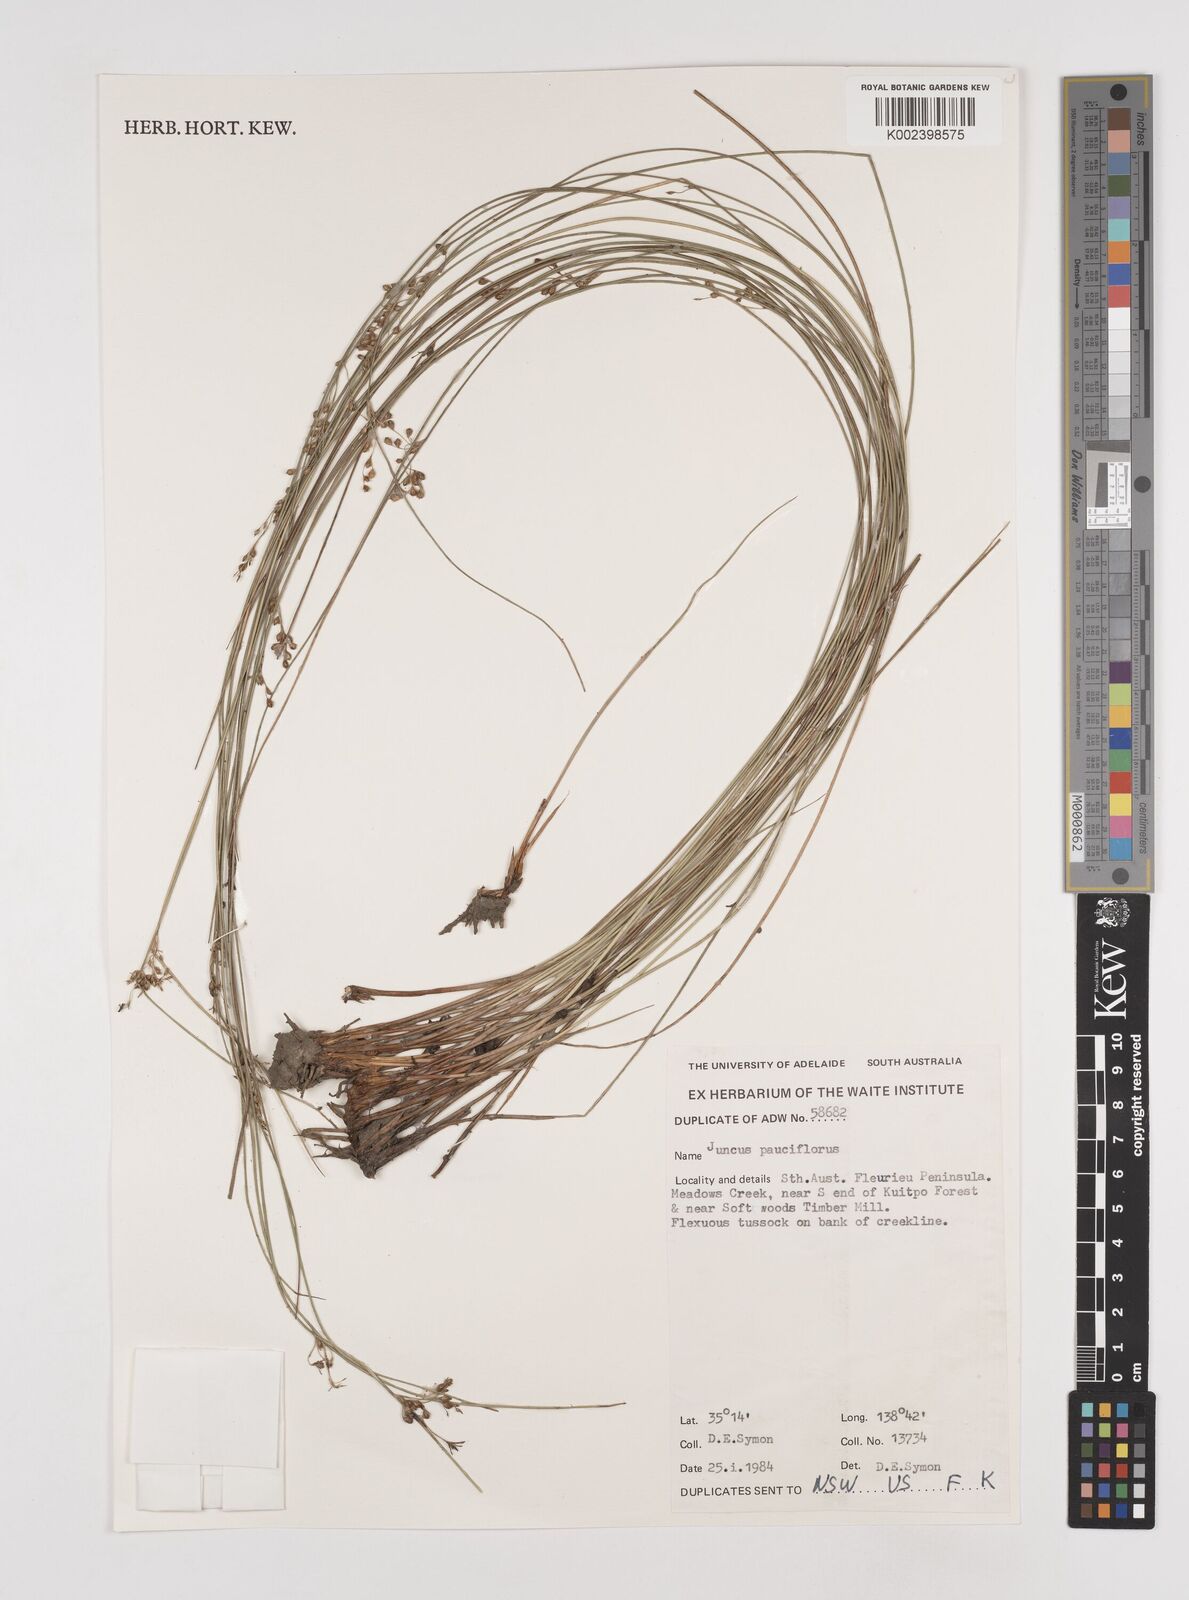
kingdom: Plantae
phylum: Tracheophyta
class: Liliopsida
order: Poales
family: Juncaceae
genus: Juncus
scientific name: Juncus pauciflorus
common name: Loose-flowered rush
